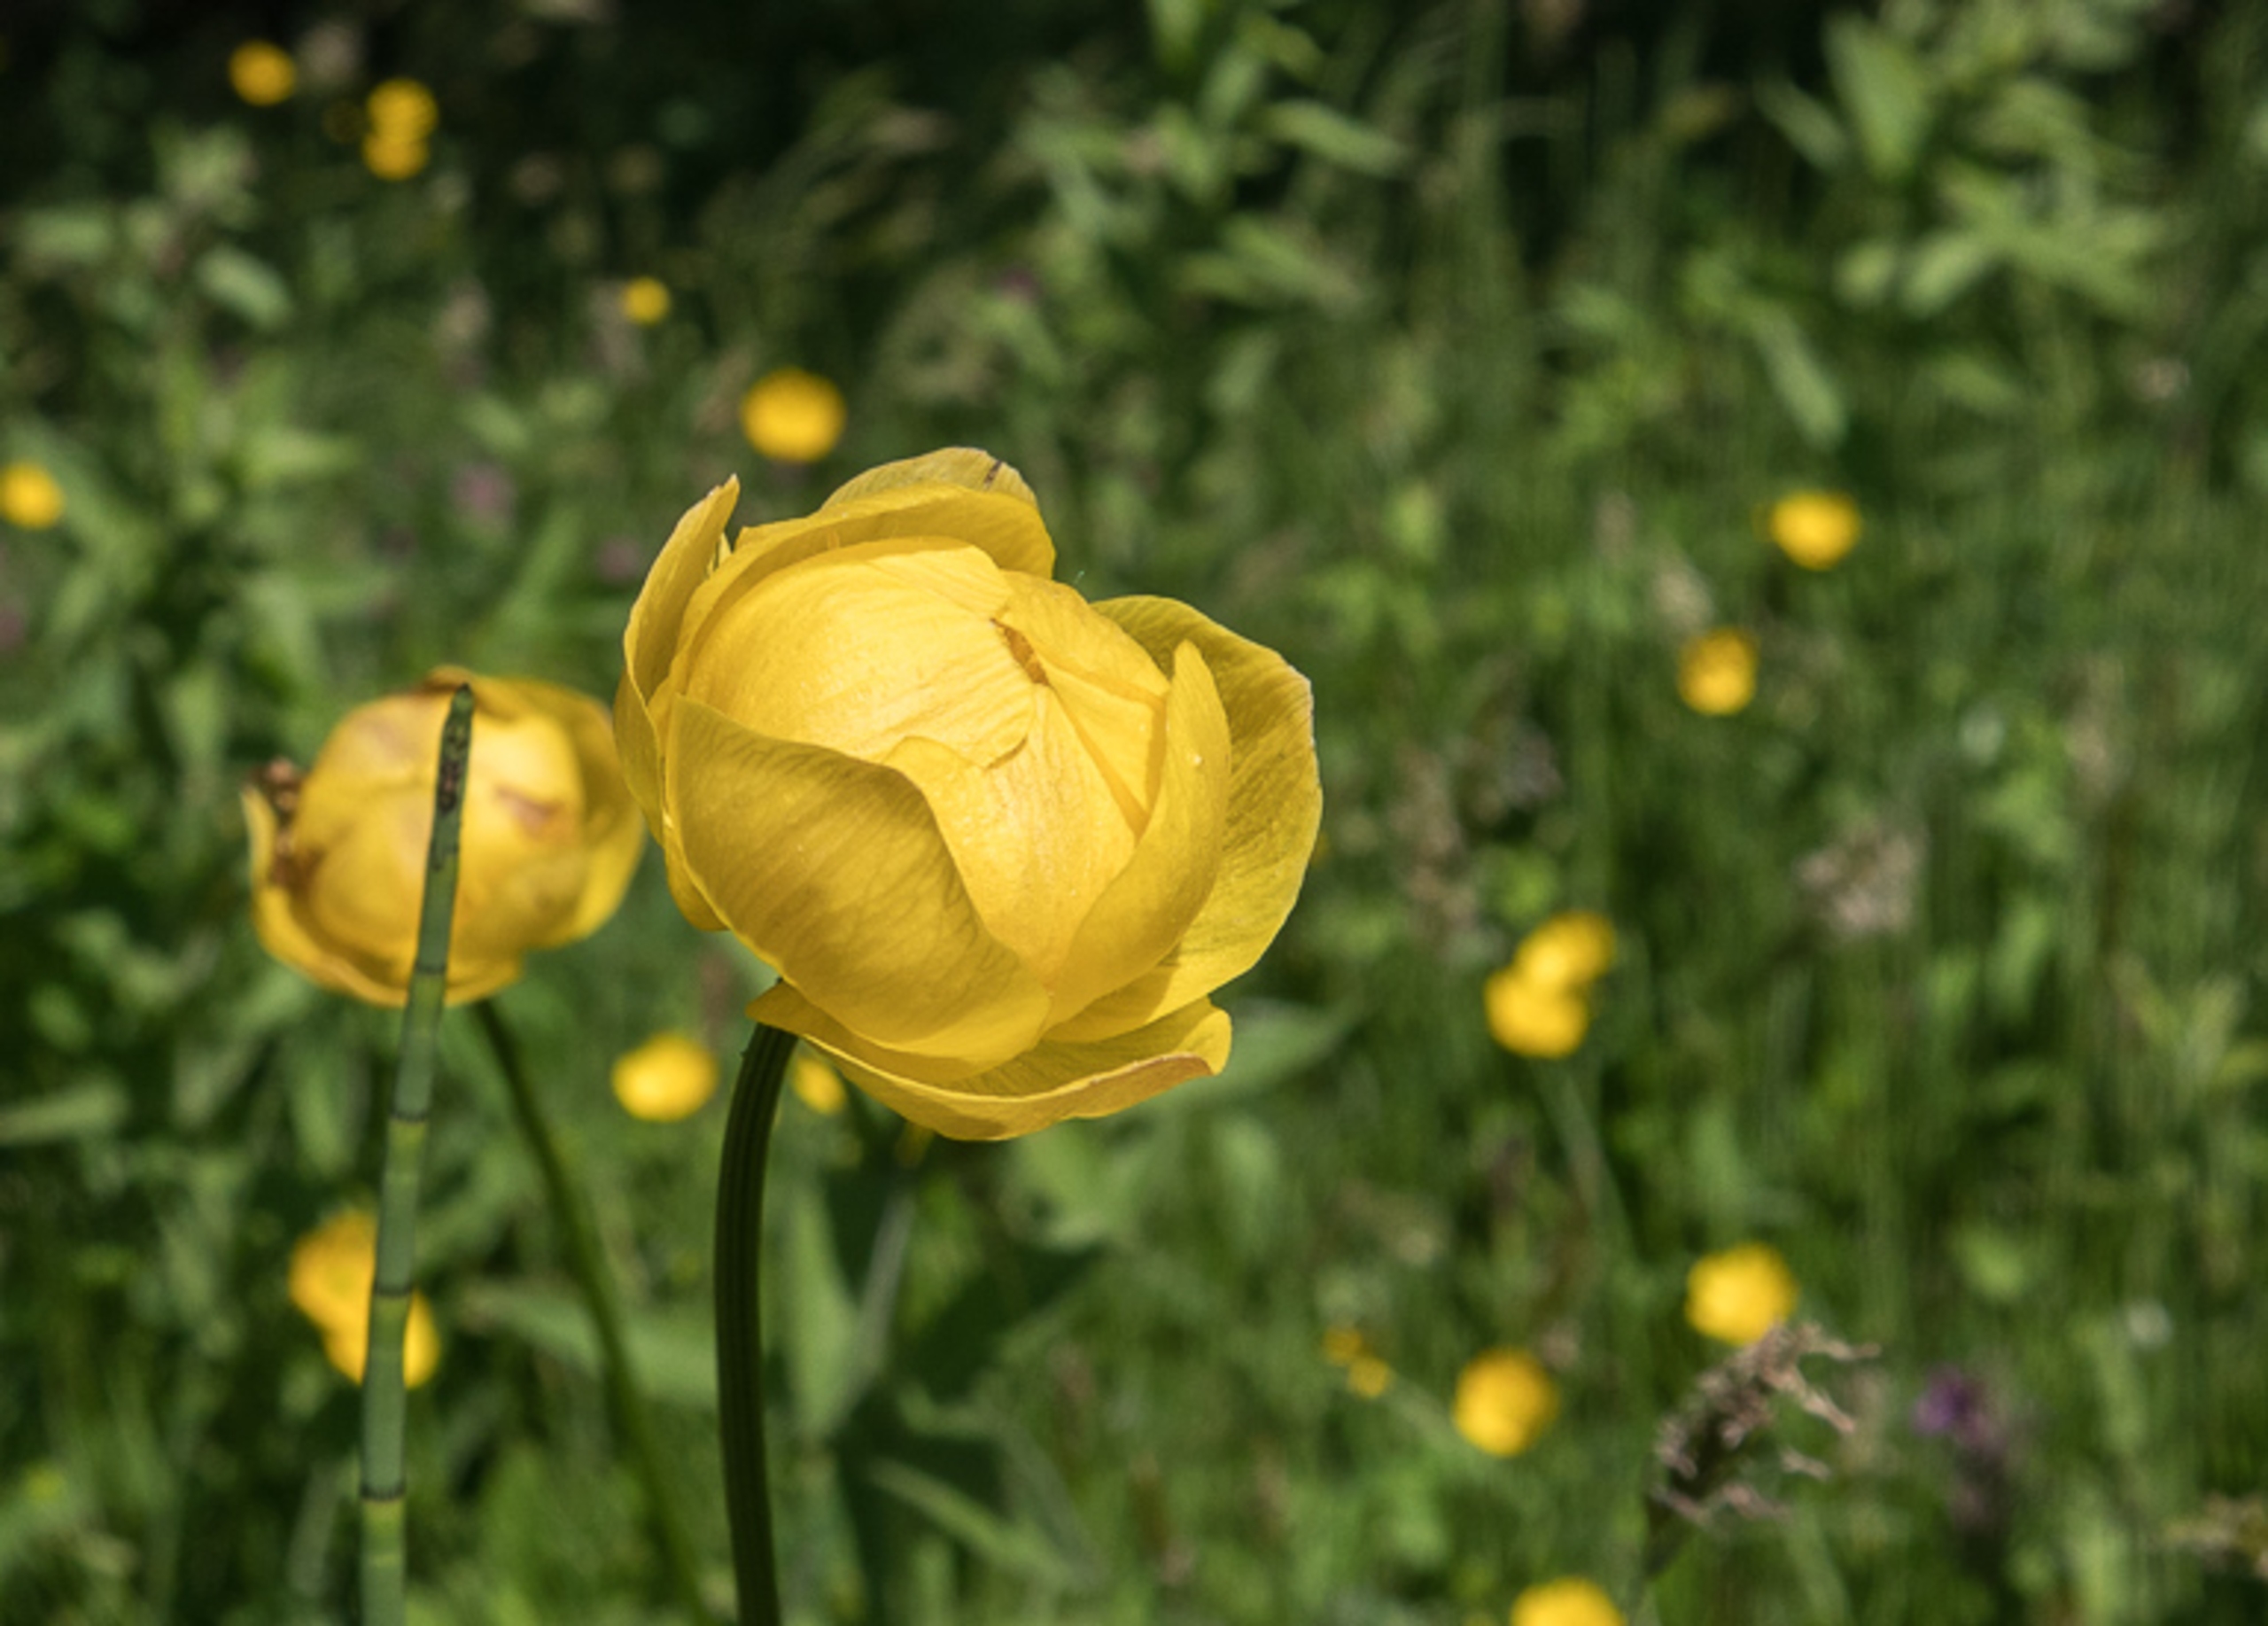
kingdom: Plantae
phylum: Tracheophyta
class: Magnoliopsida
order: Ranunculales
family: Ranunculaceae
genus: Trollius
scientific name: Trollius europaeus
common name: Engblomme
